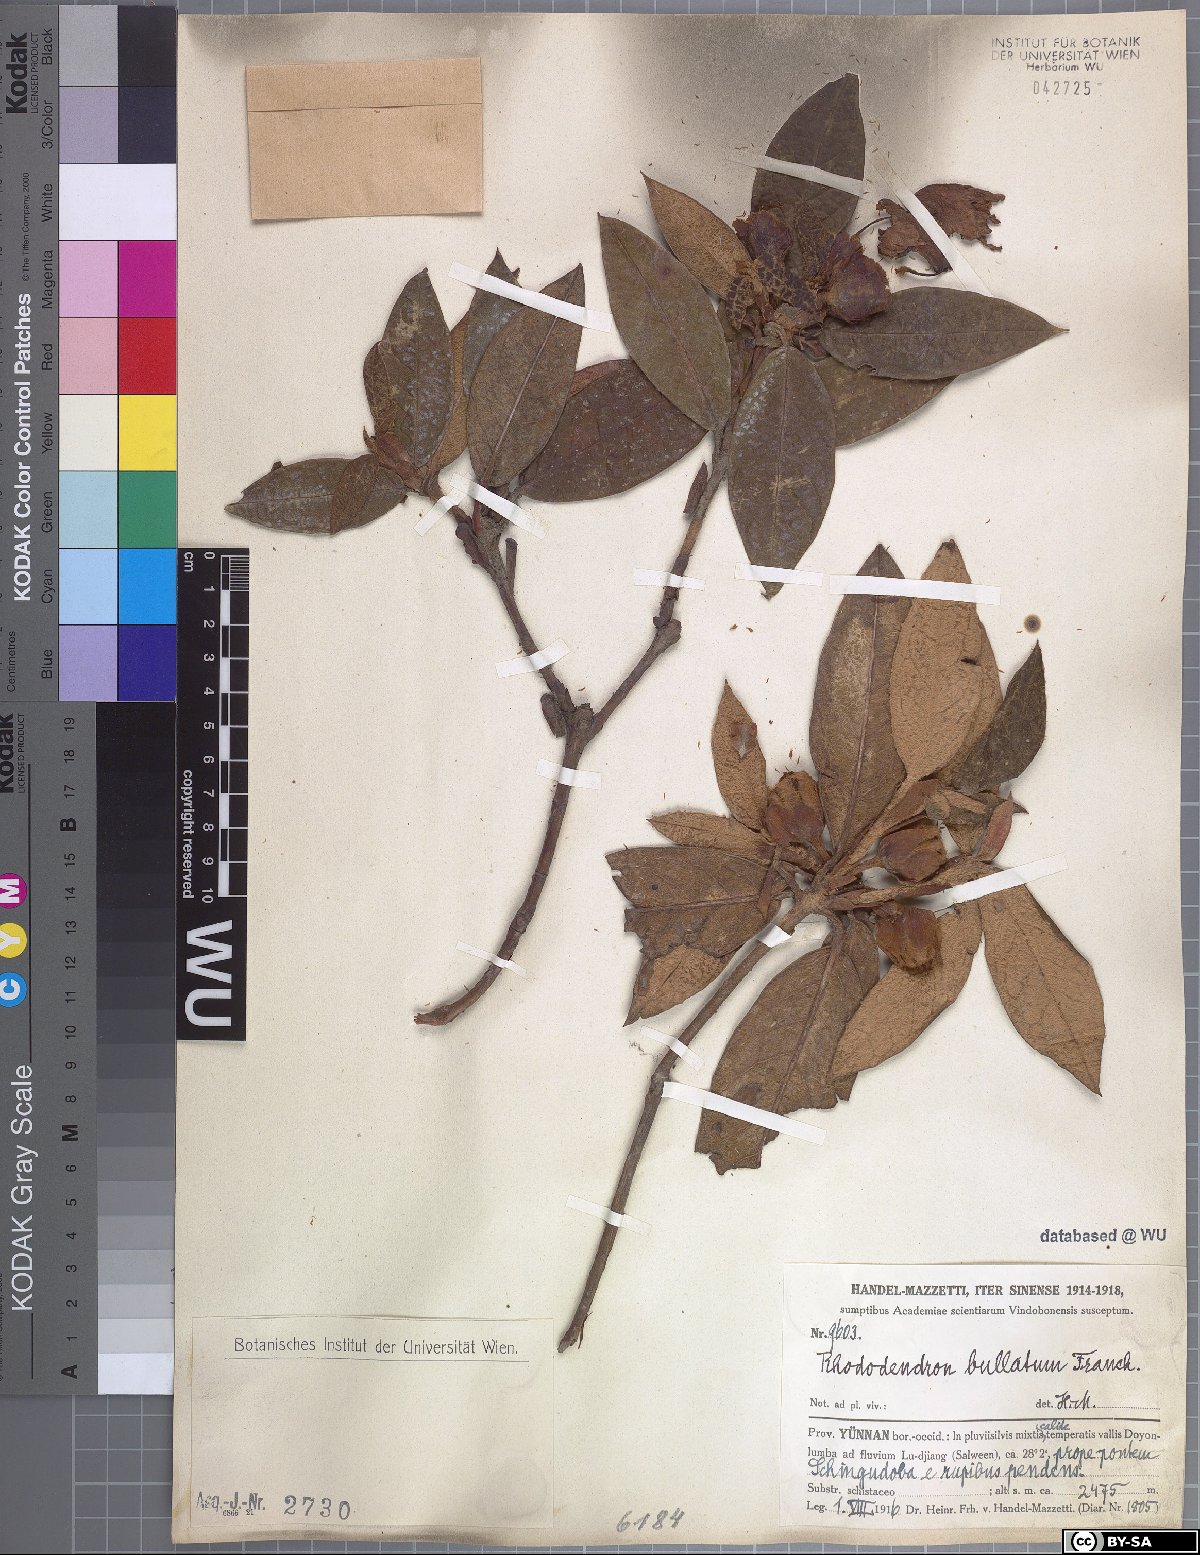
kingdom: Plantae
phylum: Tracheophyta
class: Magnoliopsida
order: Ericales
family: Ericaceae
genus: Rhododendron
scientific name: Rhododendron edgeworthii
